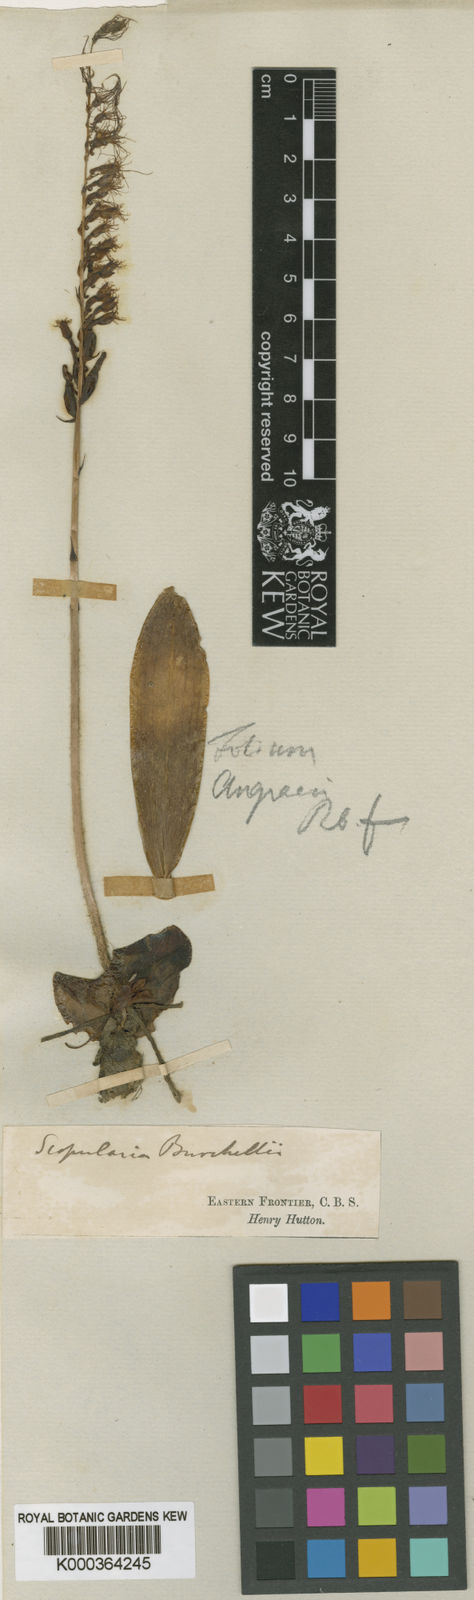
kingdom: Plantae
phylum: Tracheophyta
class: Liliopsida
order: Asparagales
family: Orchidaceae
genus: Holothrix
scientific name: Holothrix burchellii
